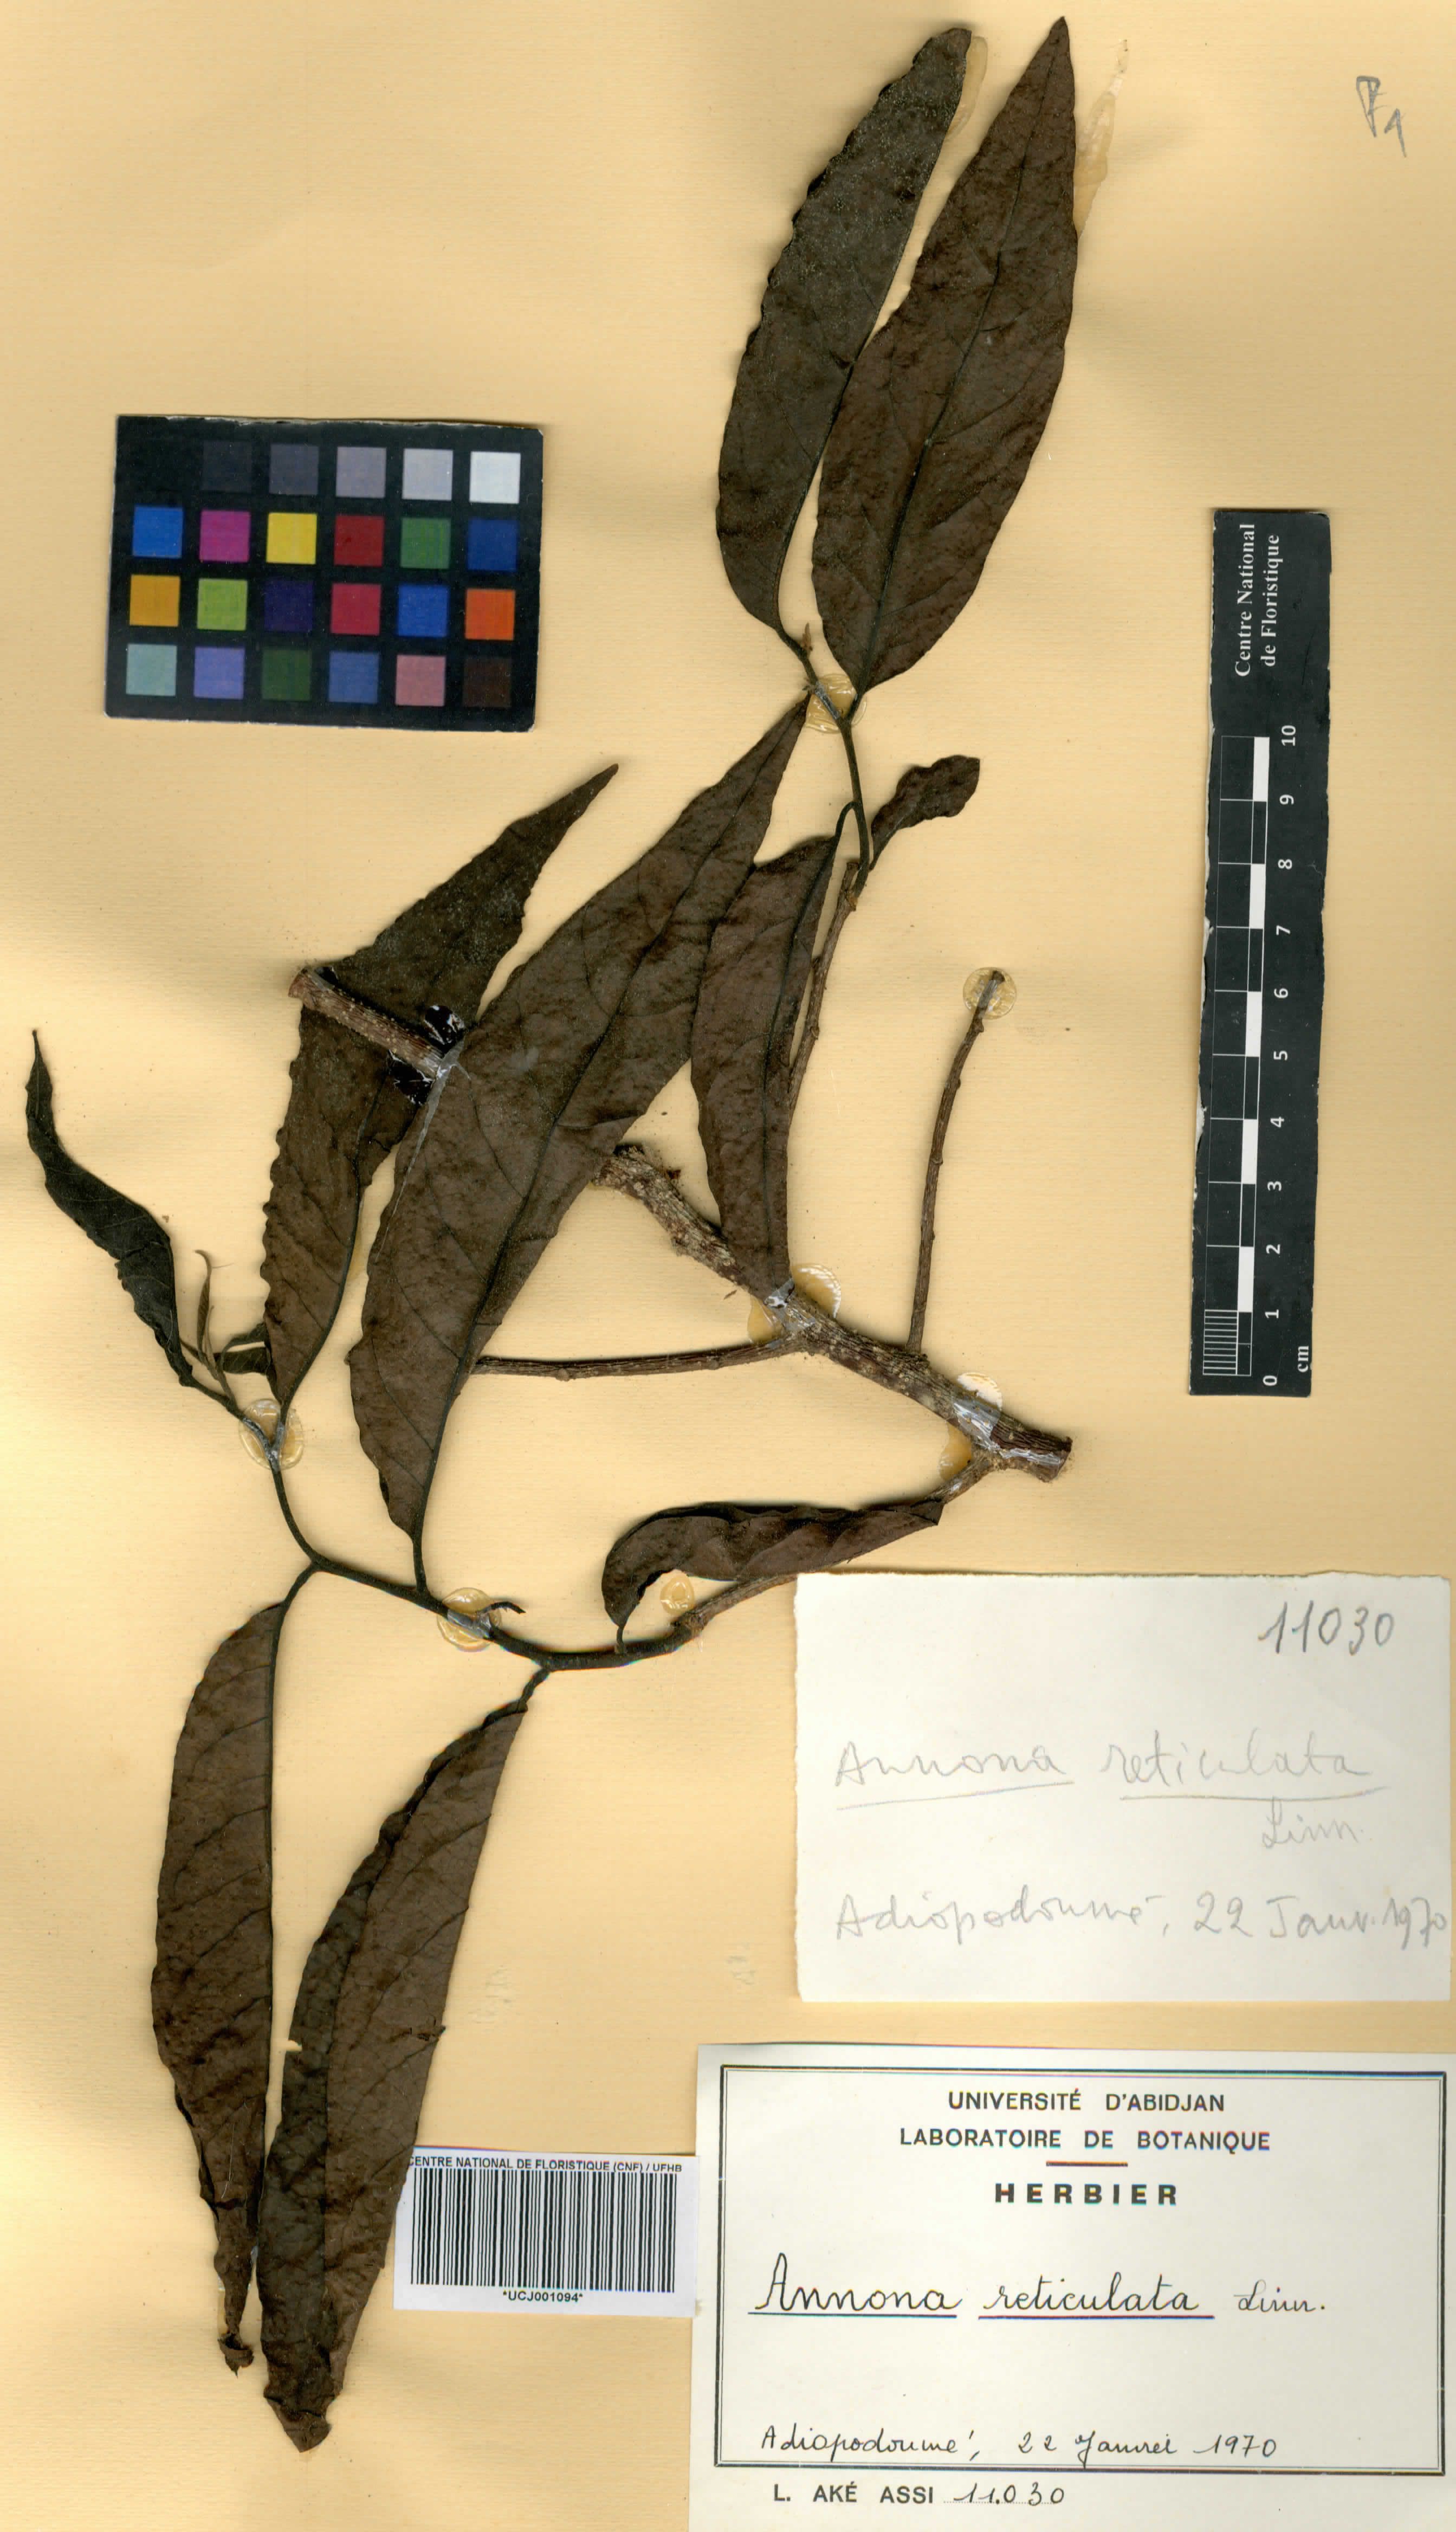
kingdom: Plantae
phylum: Tracheophyta
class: Magnoliopsida
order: Magnoliales
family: Annonaceae
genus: Annona
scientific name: Annona reticulata
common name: Custard apple
